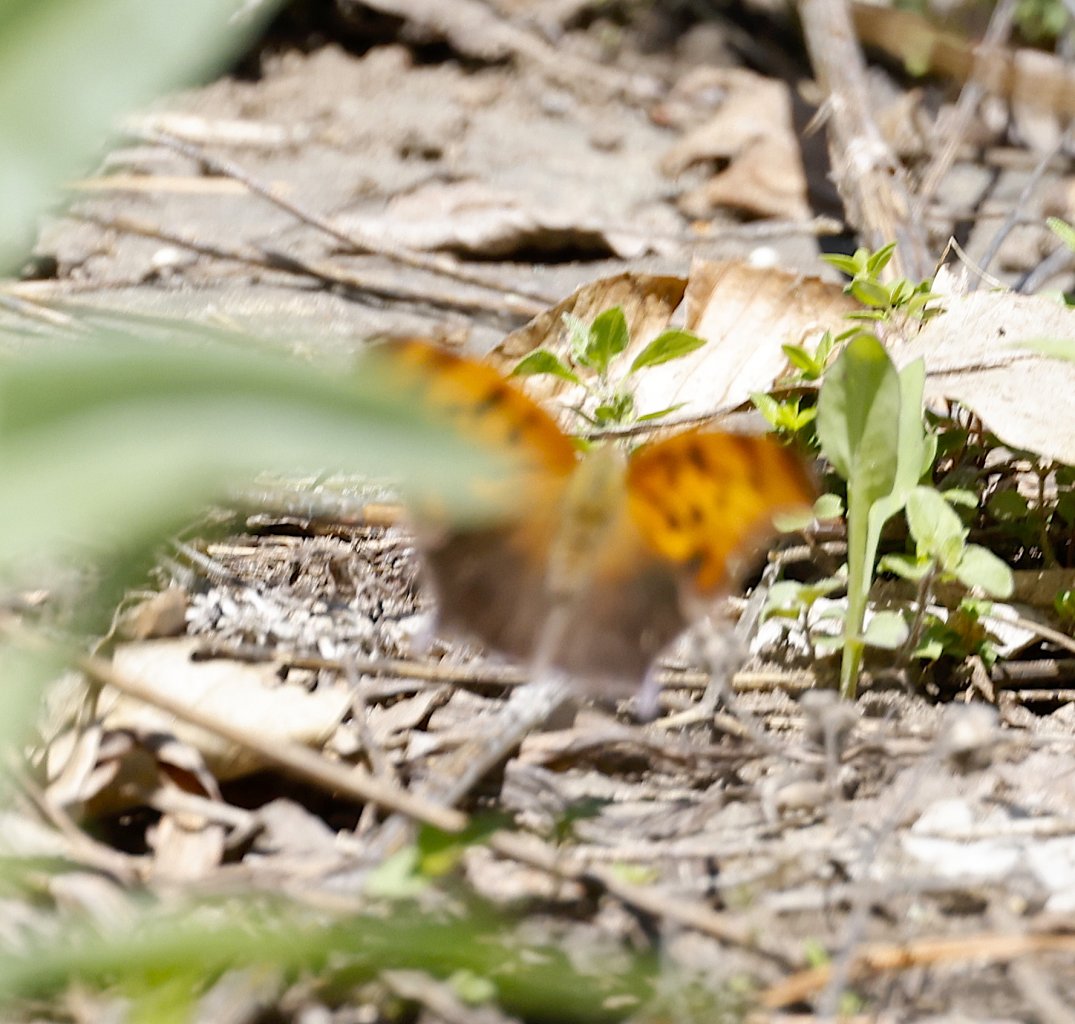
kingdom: Animalia
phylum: Arthropoda
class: Insecta
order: Lepidoptera
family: Nymphalidae
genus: Polygonia
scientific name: Polygonia comma
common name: Eastern Comma
